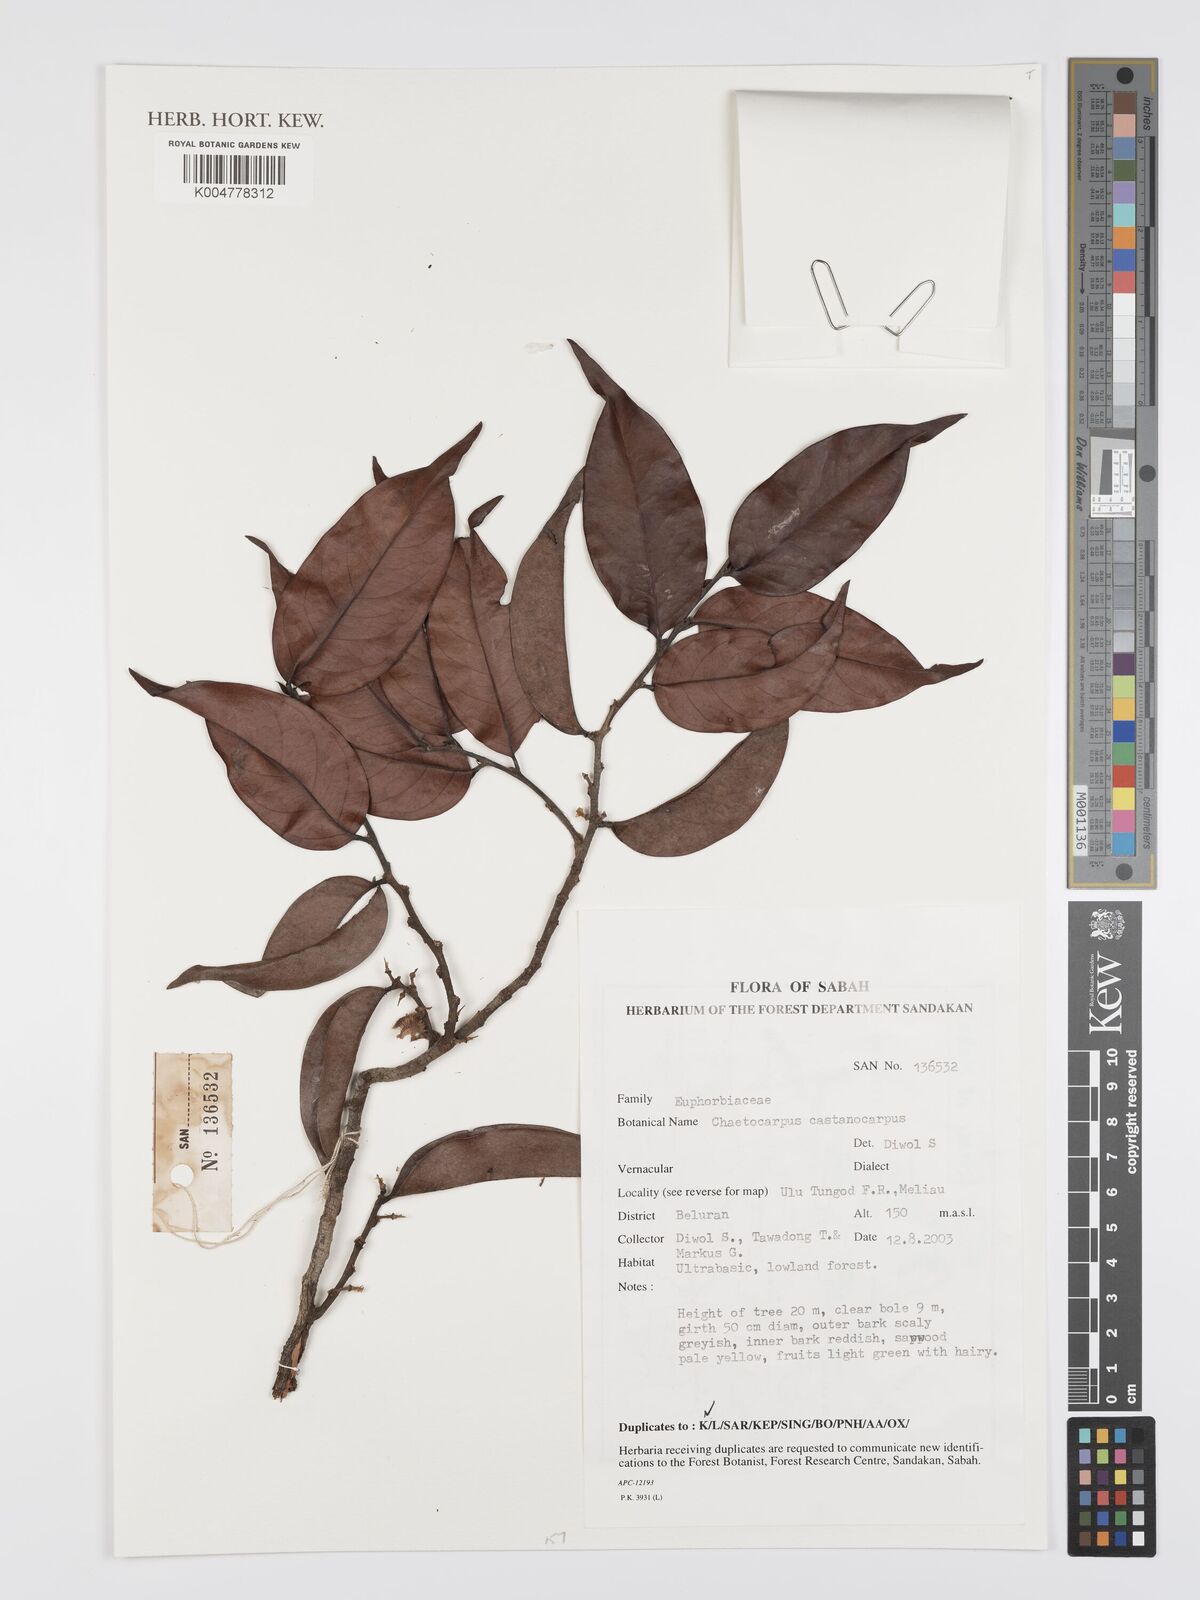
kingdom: Plantae
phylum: Tracheophyta
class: Magnoliopsida
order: Malpighiales
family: Peraceae
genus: Chaetocarpus
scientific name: Chaetocarpus castanocarpus
